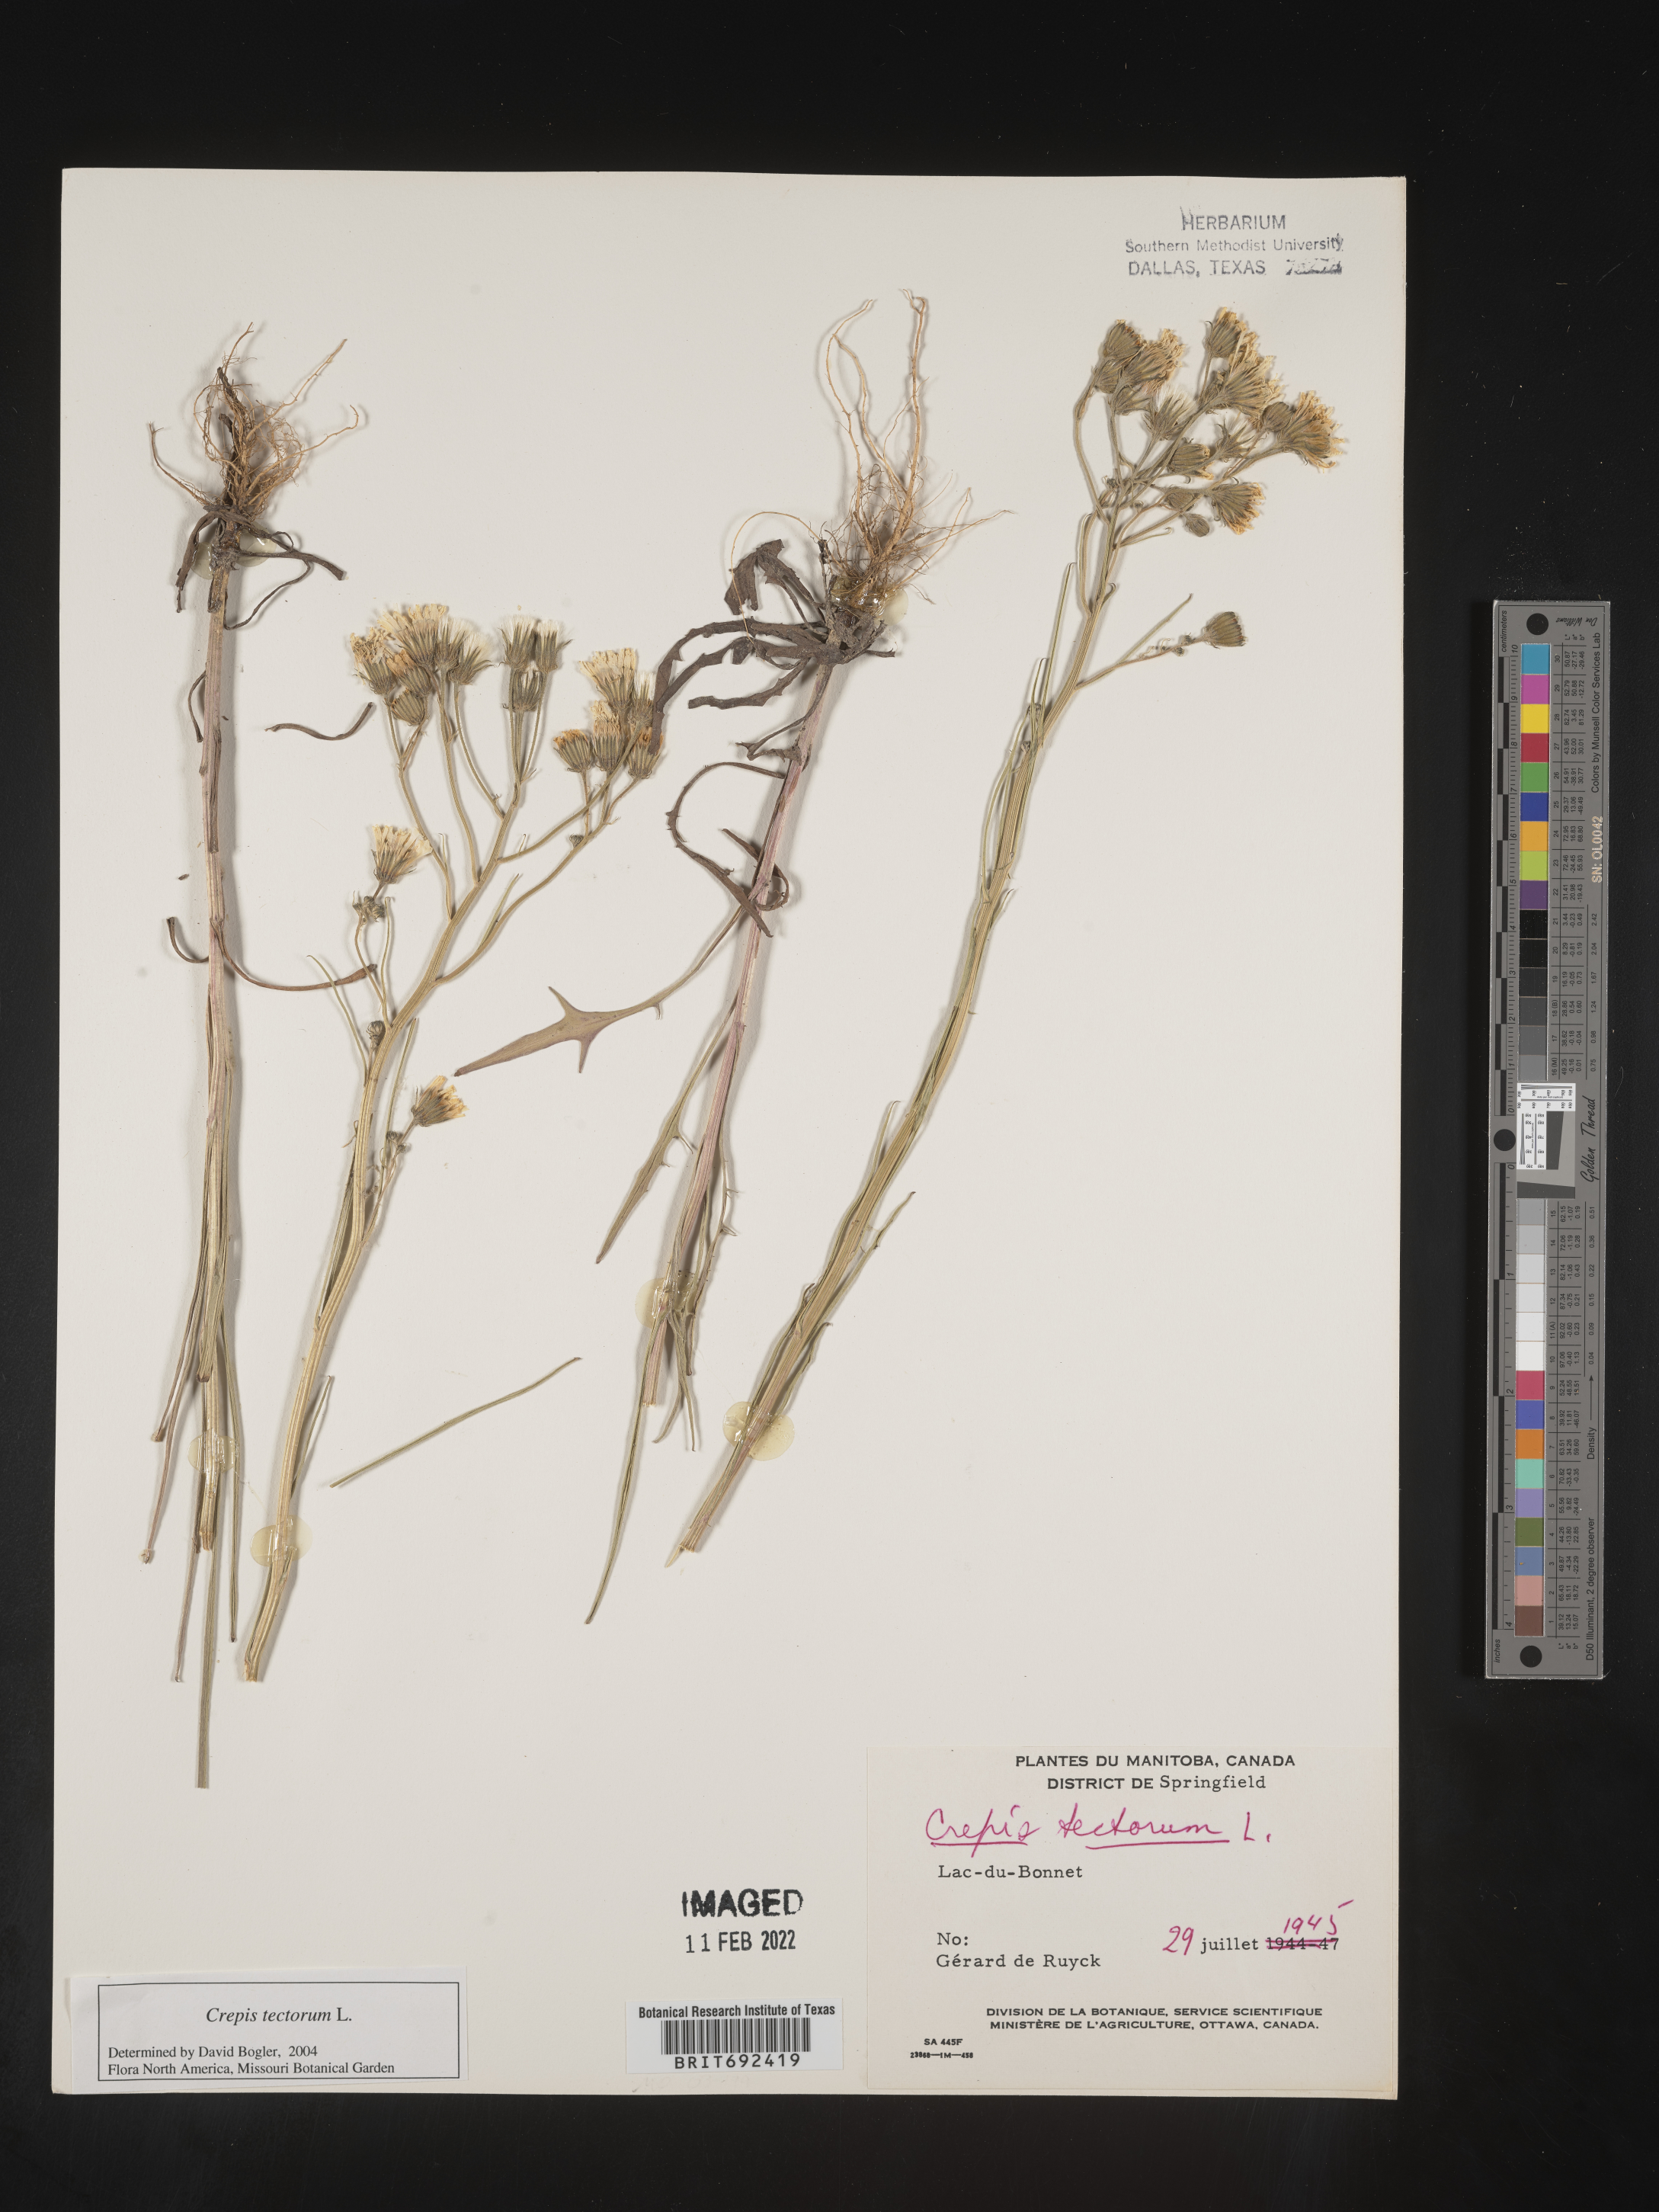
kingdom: Plantae
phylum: Tracheophyta
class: Magnoliopsida
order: Asterales
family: Asteraceae
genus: Crepis
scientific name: Crepis
